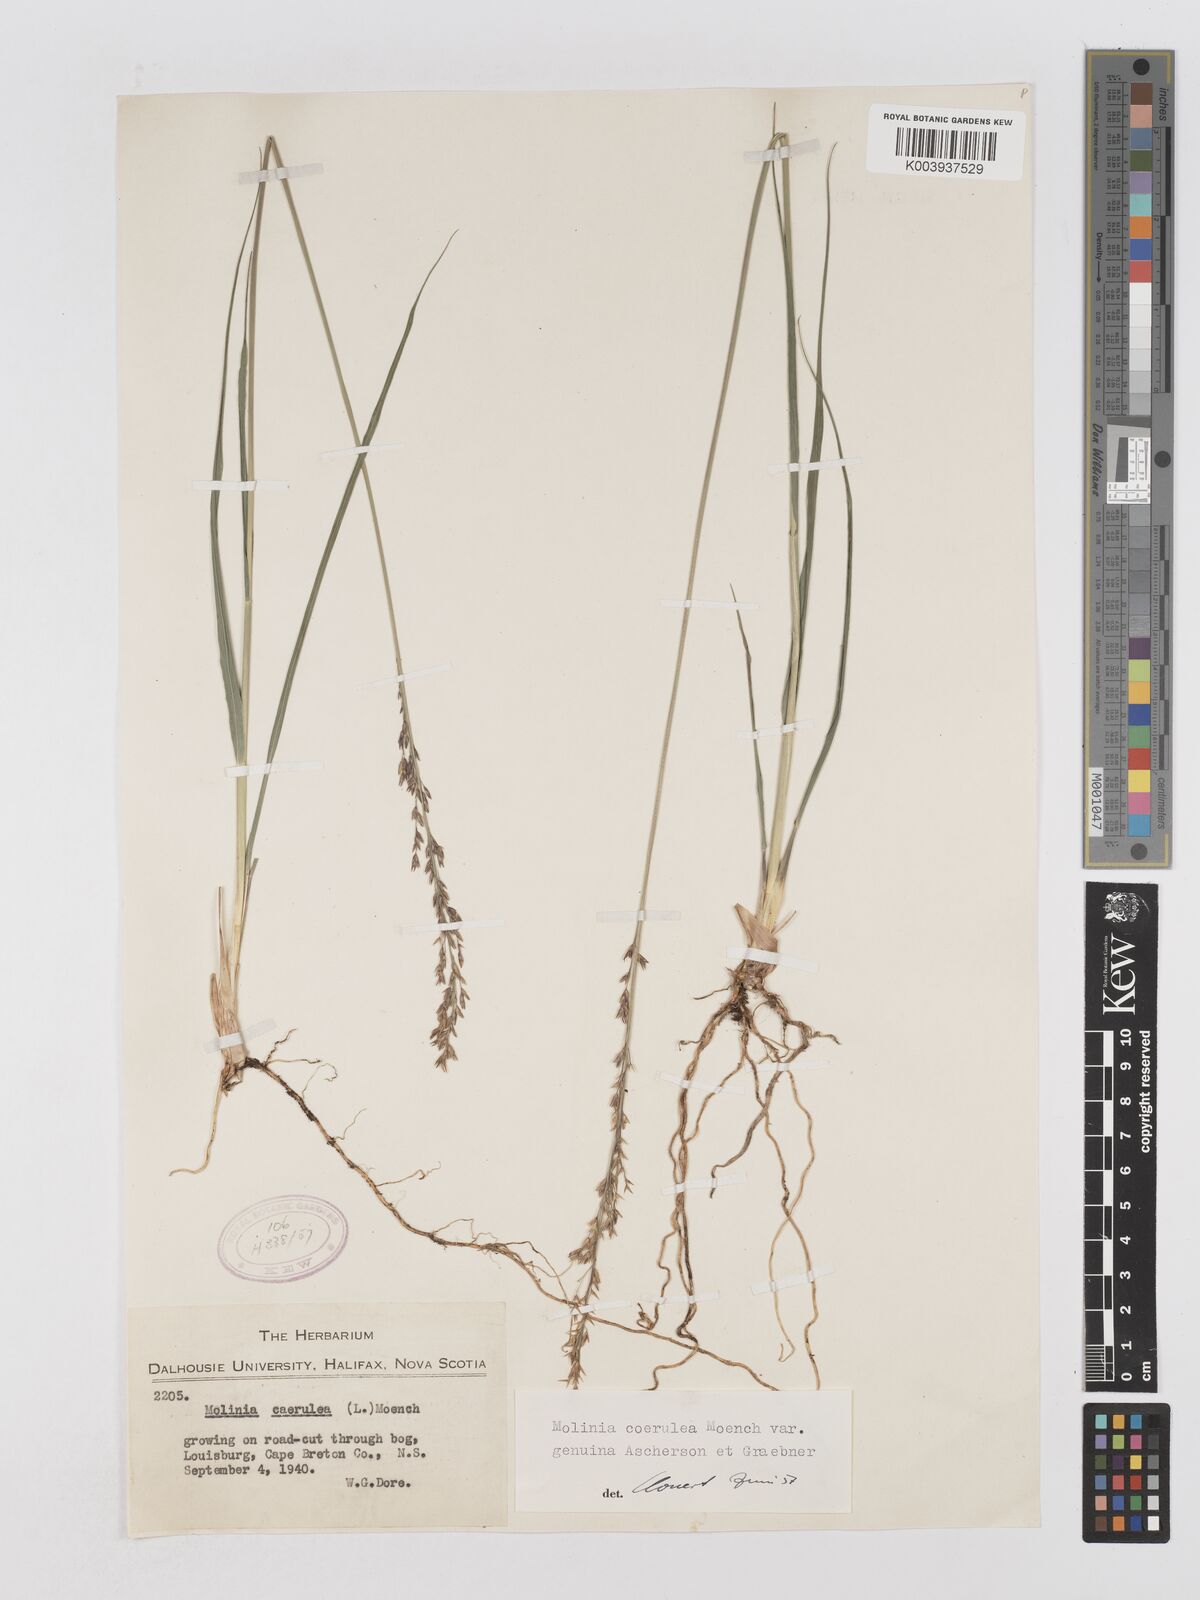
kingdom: Plantae
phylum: Tracheophyta
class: Liliopsida
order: Poales
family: Poaceae
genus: Molinia
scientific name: Molinia caerulea
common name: Purple moor-grass
